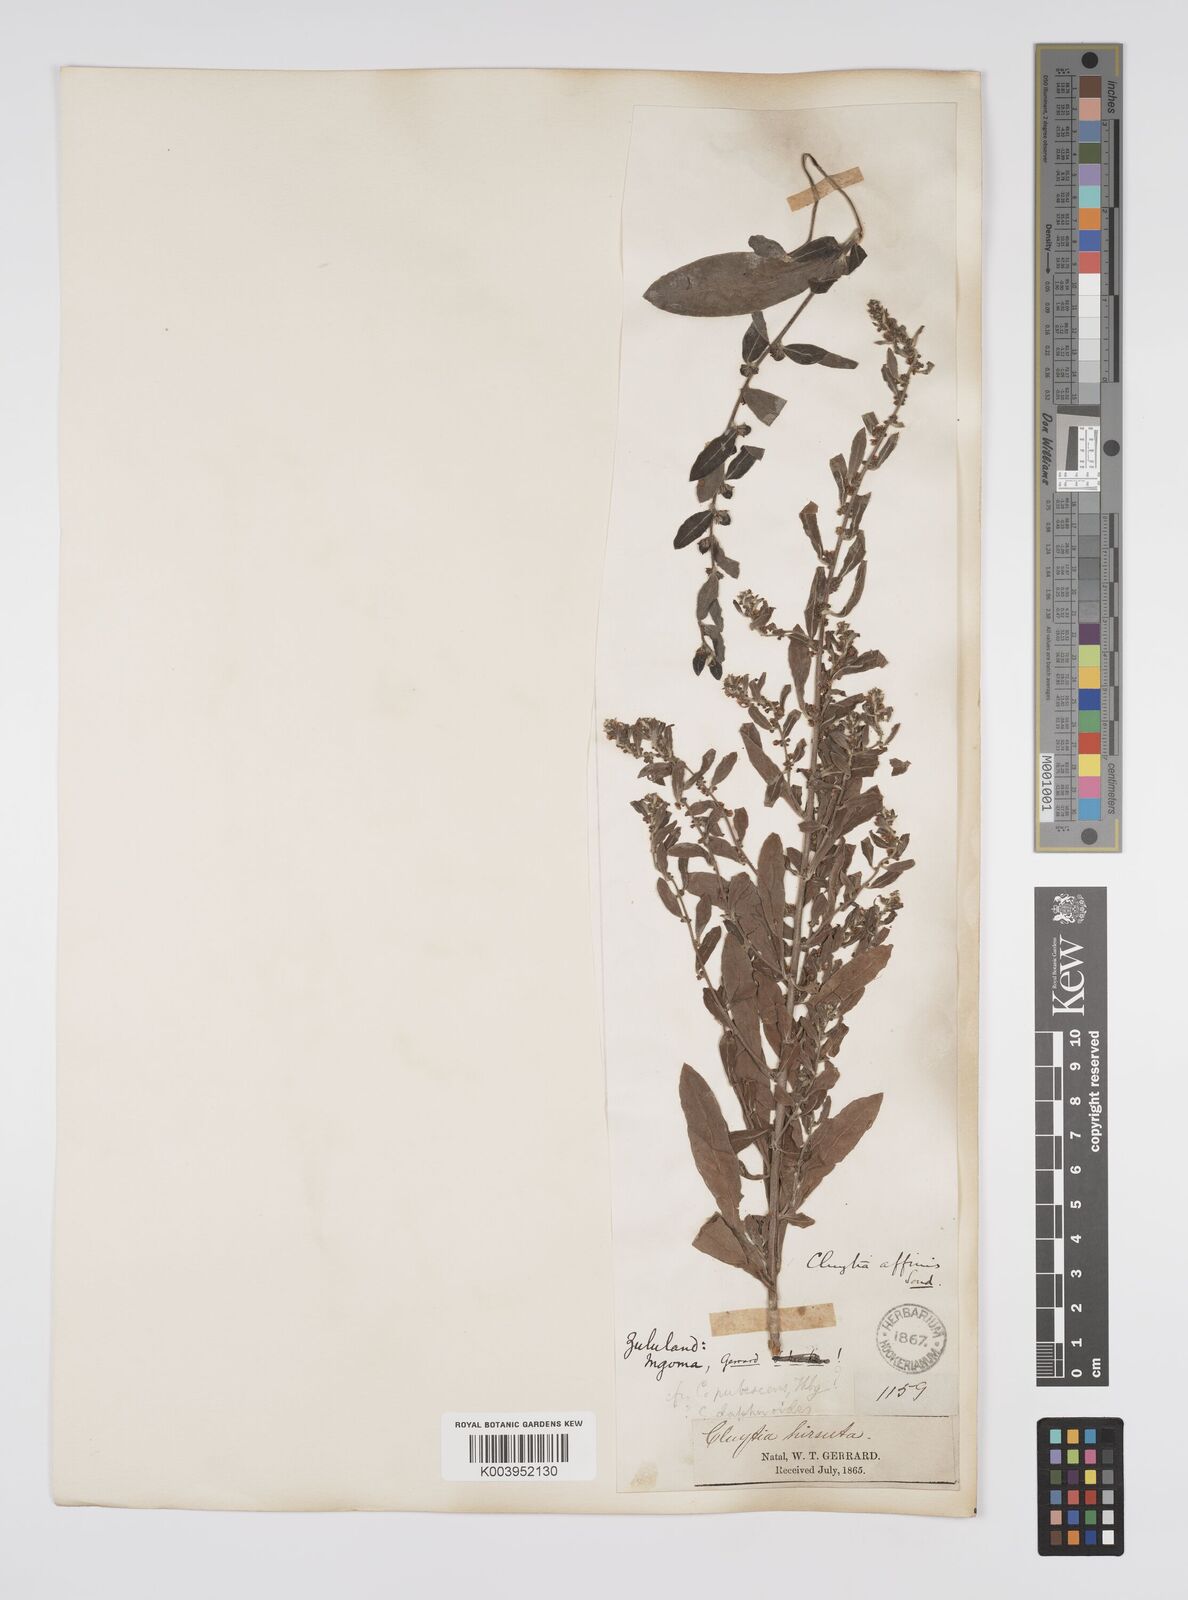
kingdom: Plantae
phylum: Tracheophyta
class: Magnoliopsida
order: Malpighiales
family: Peraceae
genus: Clutia
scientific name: Clutia affinis
